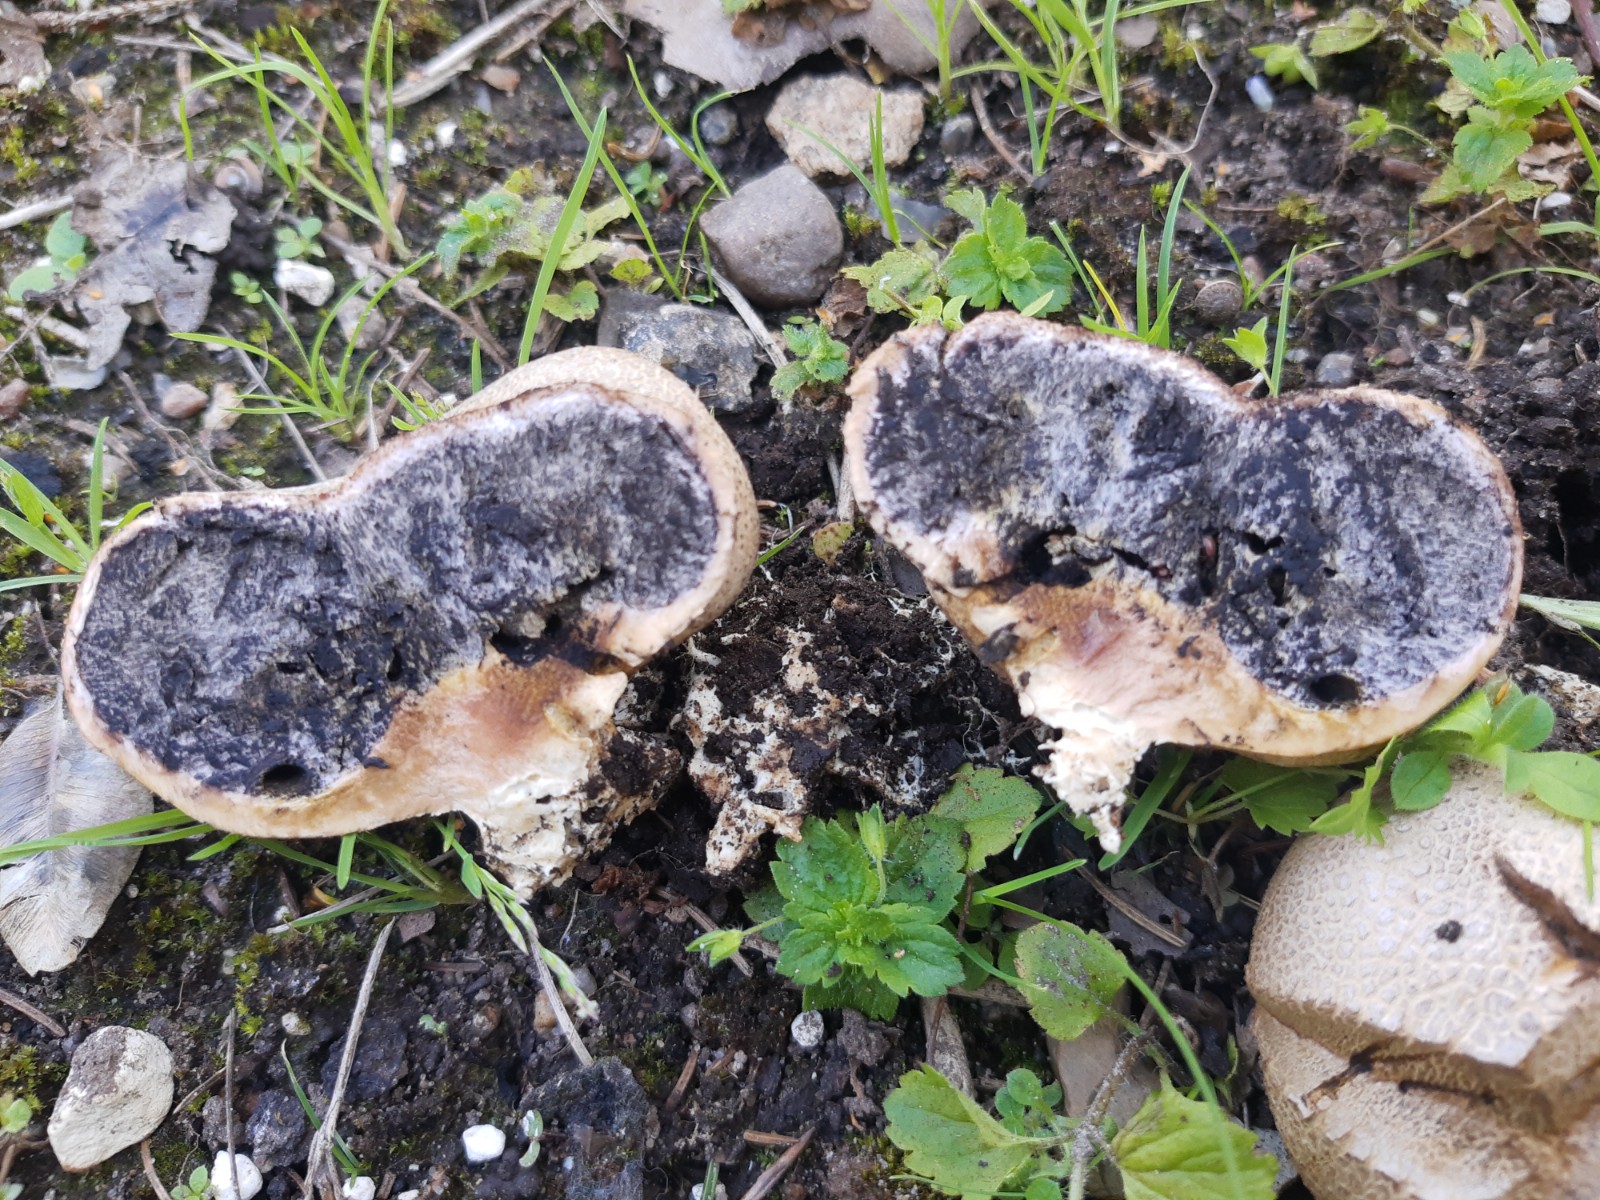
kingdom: Fungi
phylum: Basidiomycota
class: Agaricomycetes
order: Boletales
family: Sclerodermataceae
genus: Scleroderma
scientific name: Scleroderma bovista
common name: bovist-bruskbold
